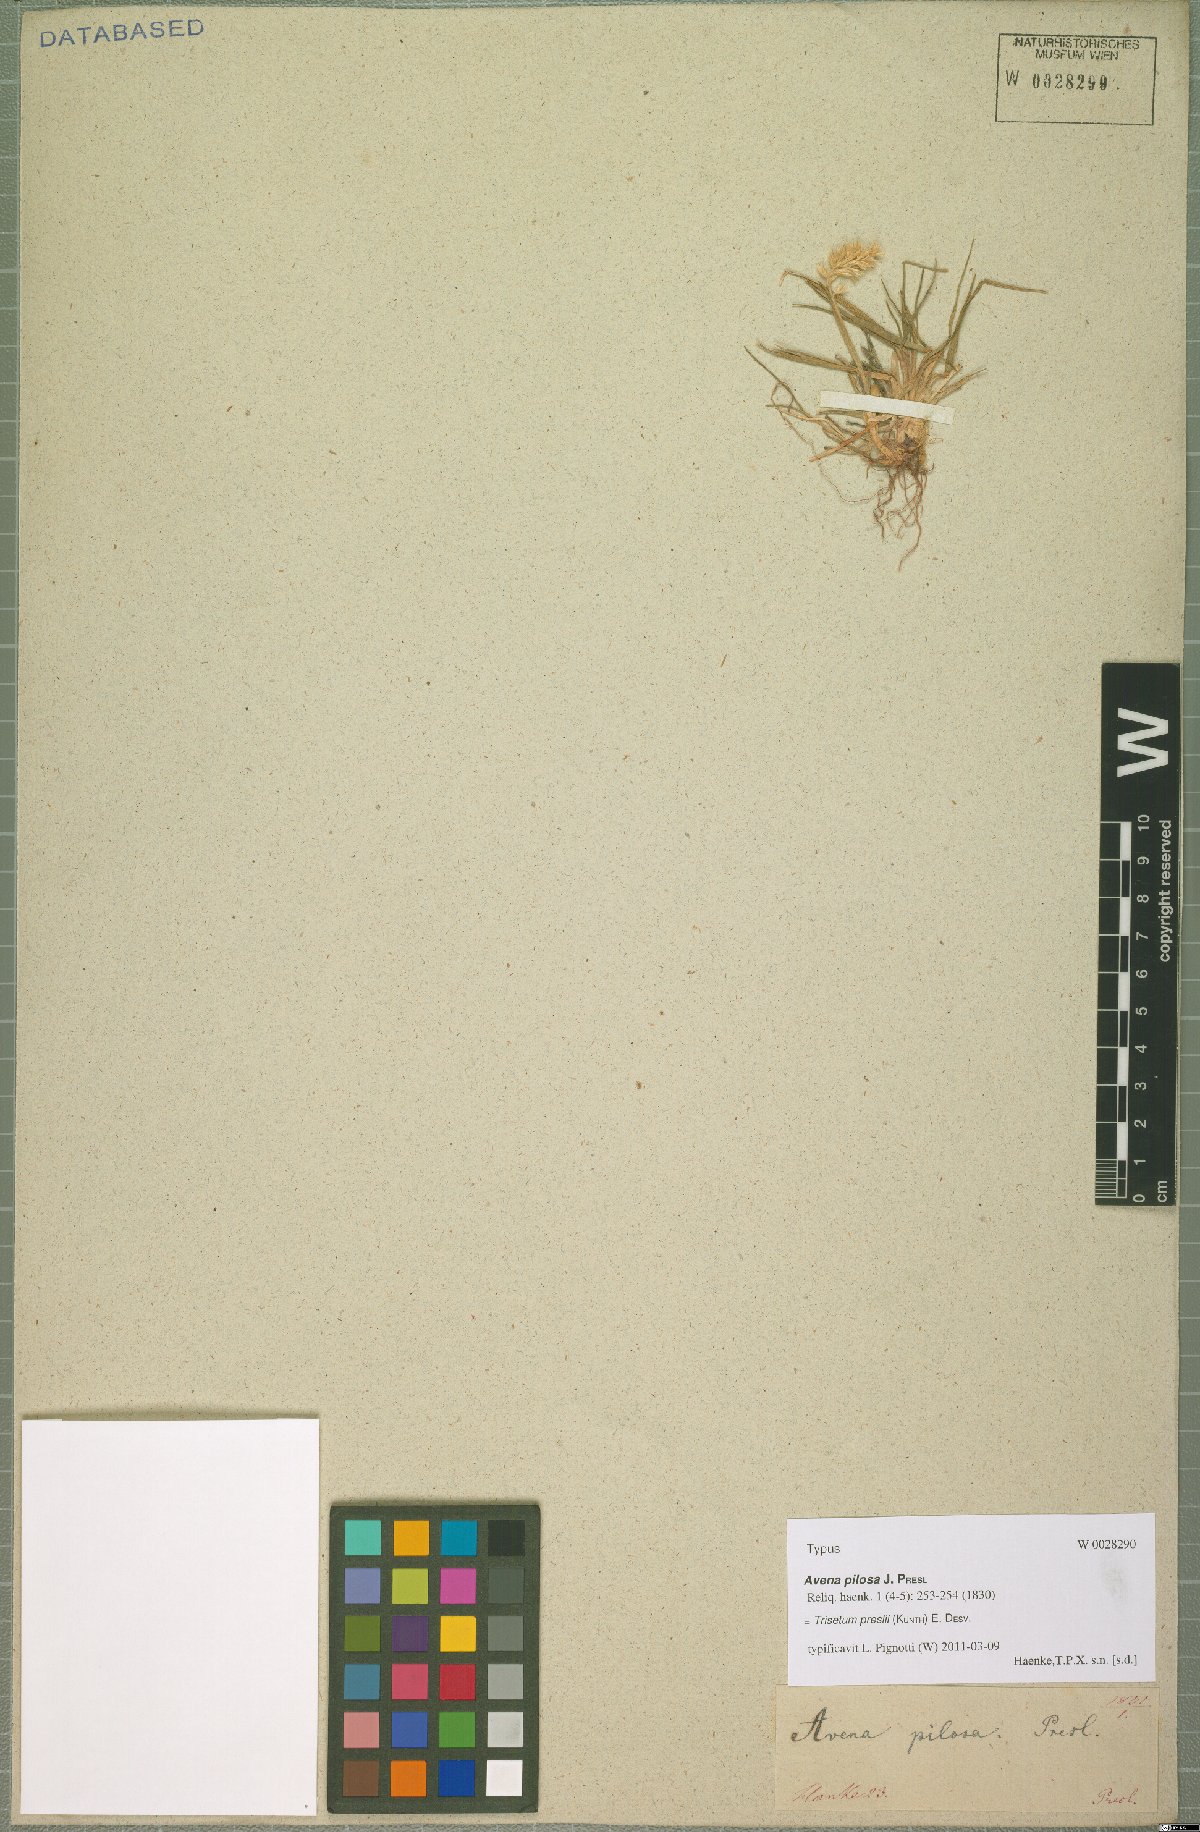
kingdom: Plantae
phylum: Tracheophyta
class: Liliopsida
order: Poales
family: Poaceae
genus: Koeleria
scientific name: Koeleria preslii
